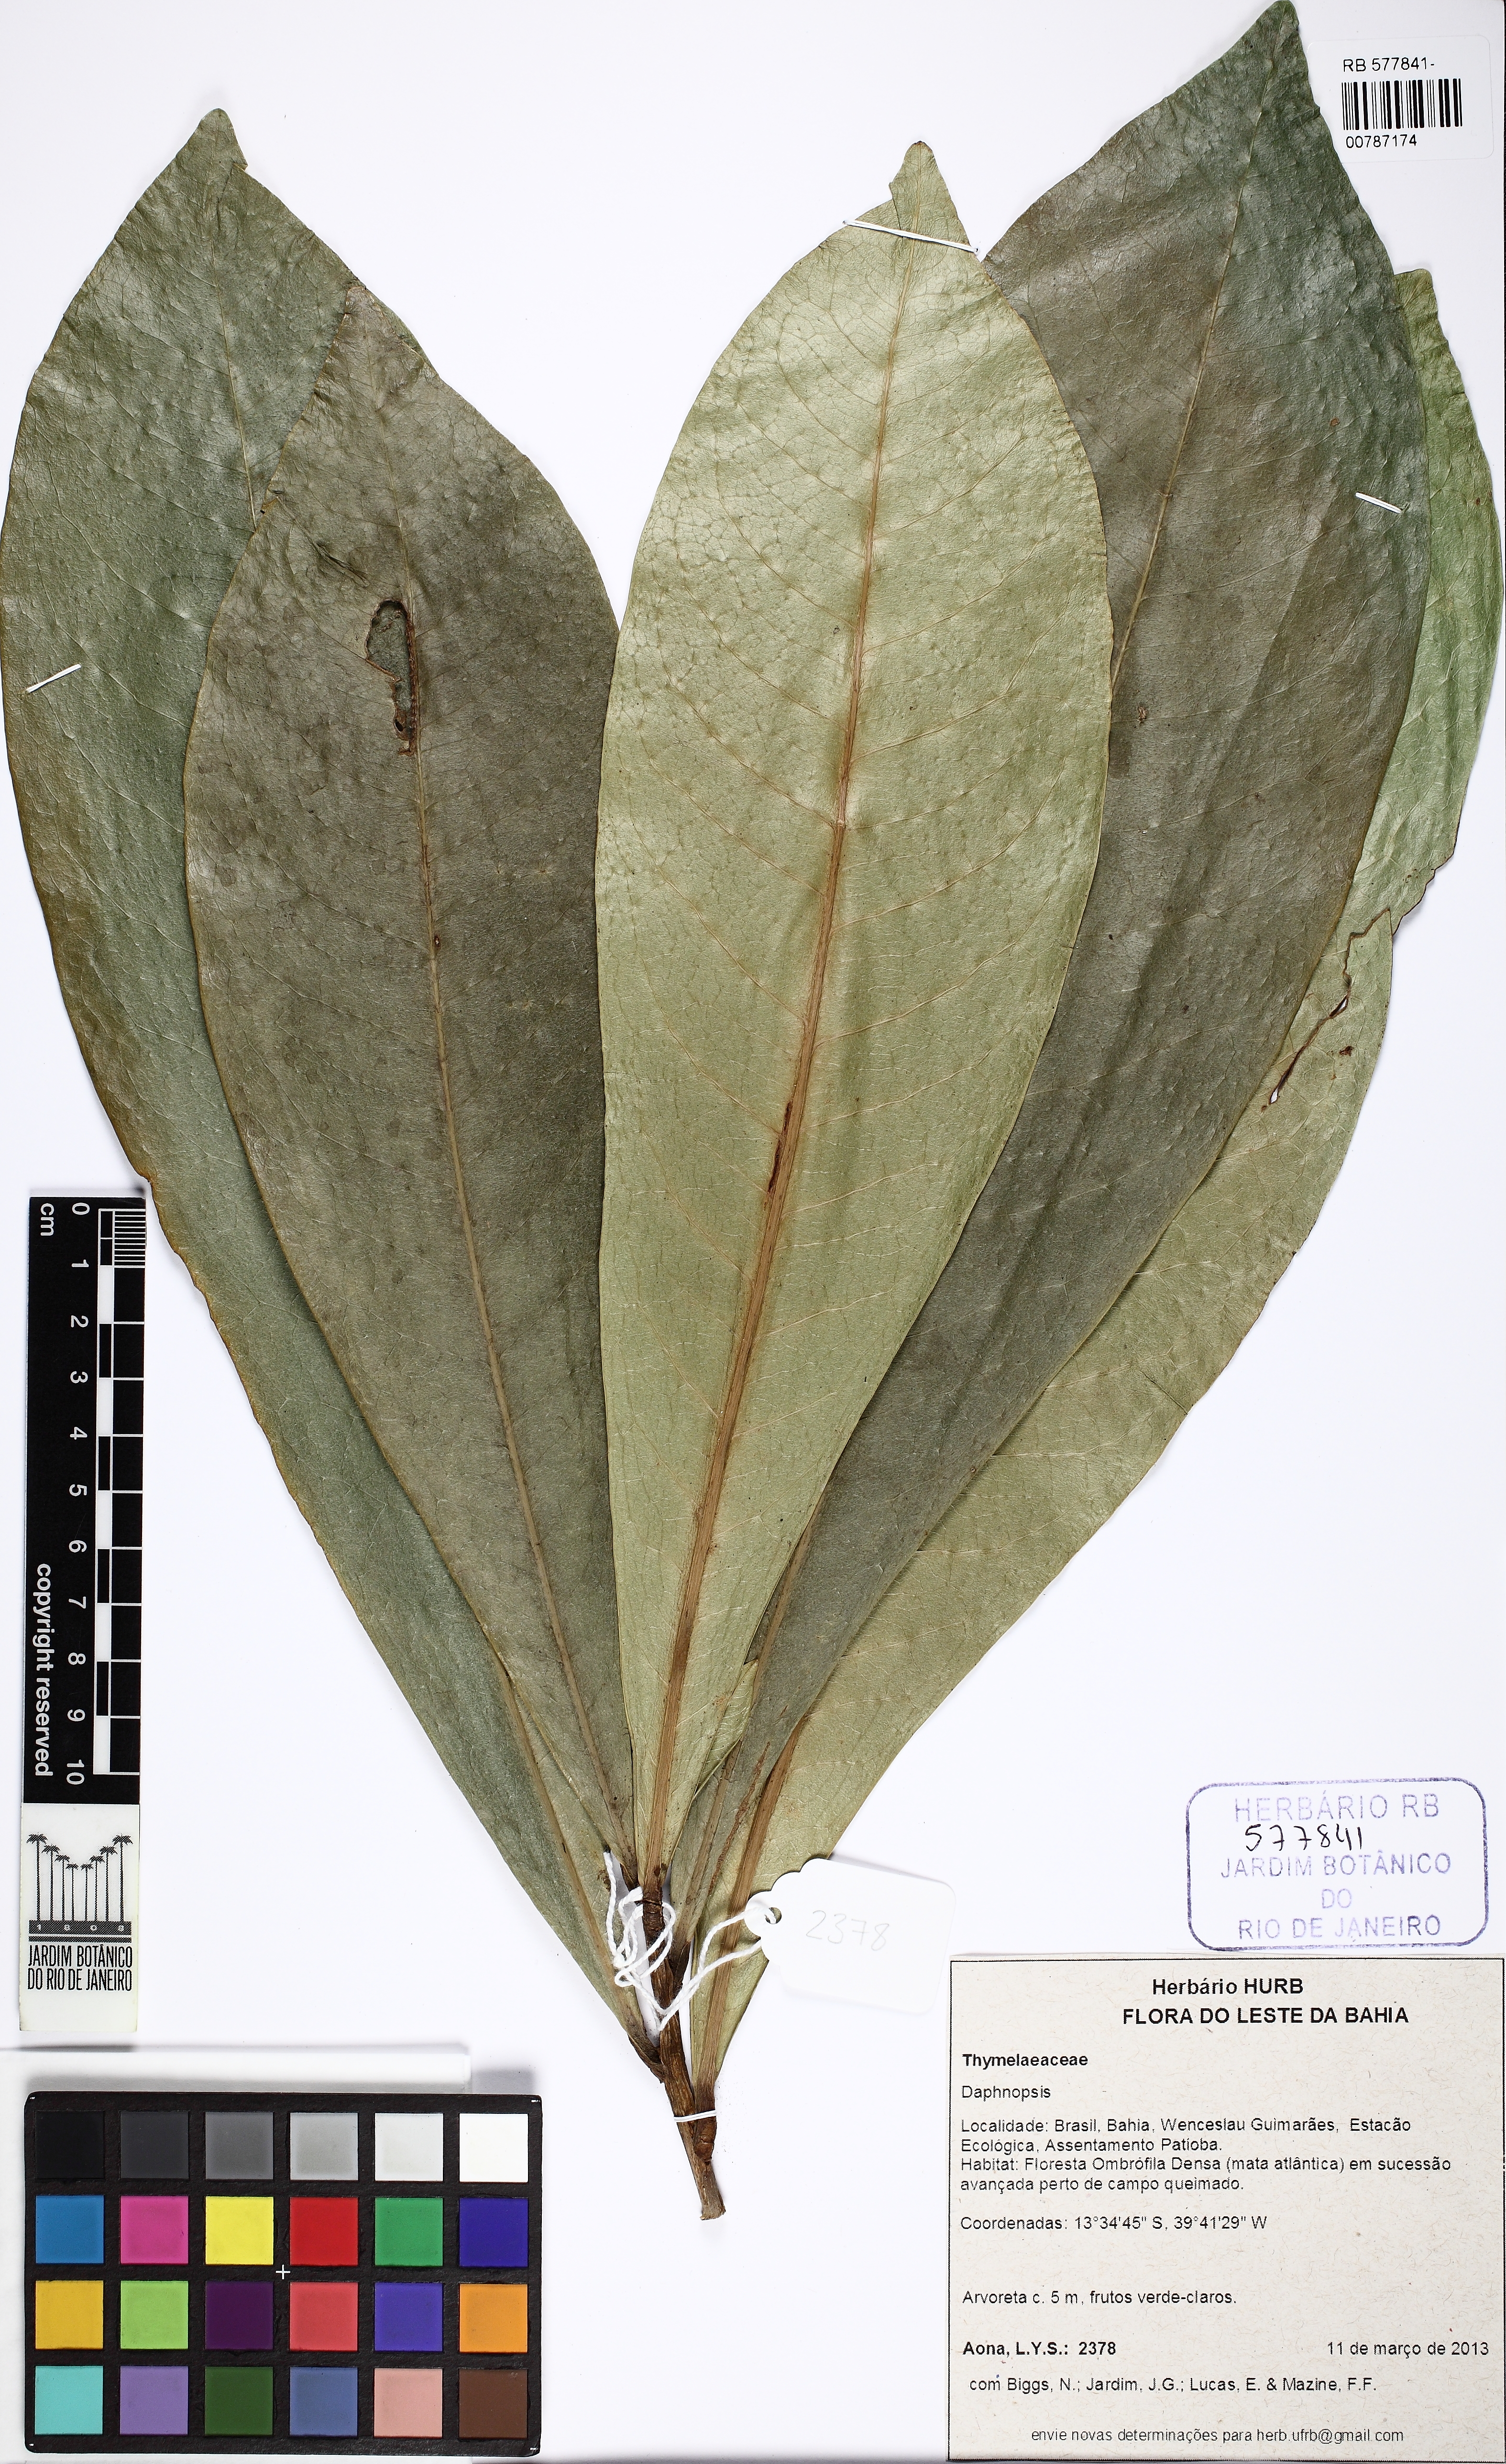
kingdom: Plantae
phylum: Tracheophyta
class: Magnoliopsida
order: Malvales
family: Thymelaeaceae
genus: Daphnopsis
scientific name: Daphnopsis
